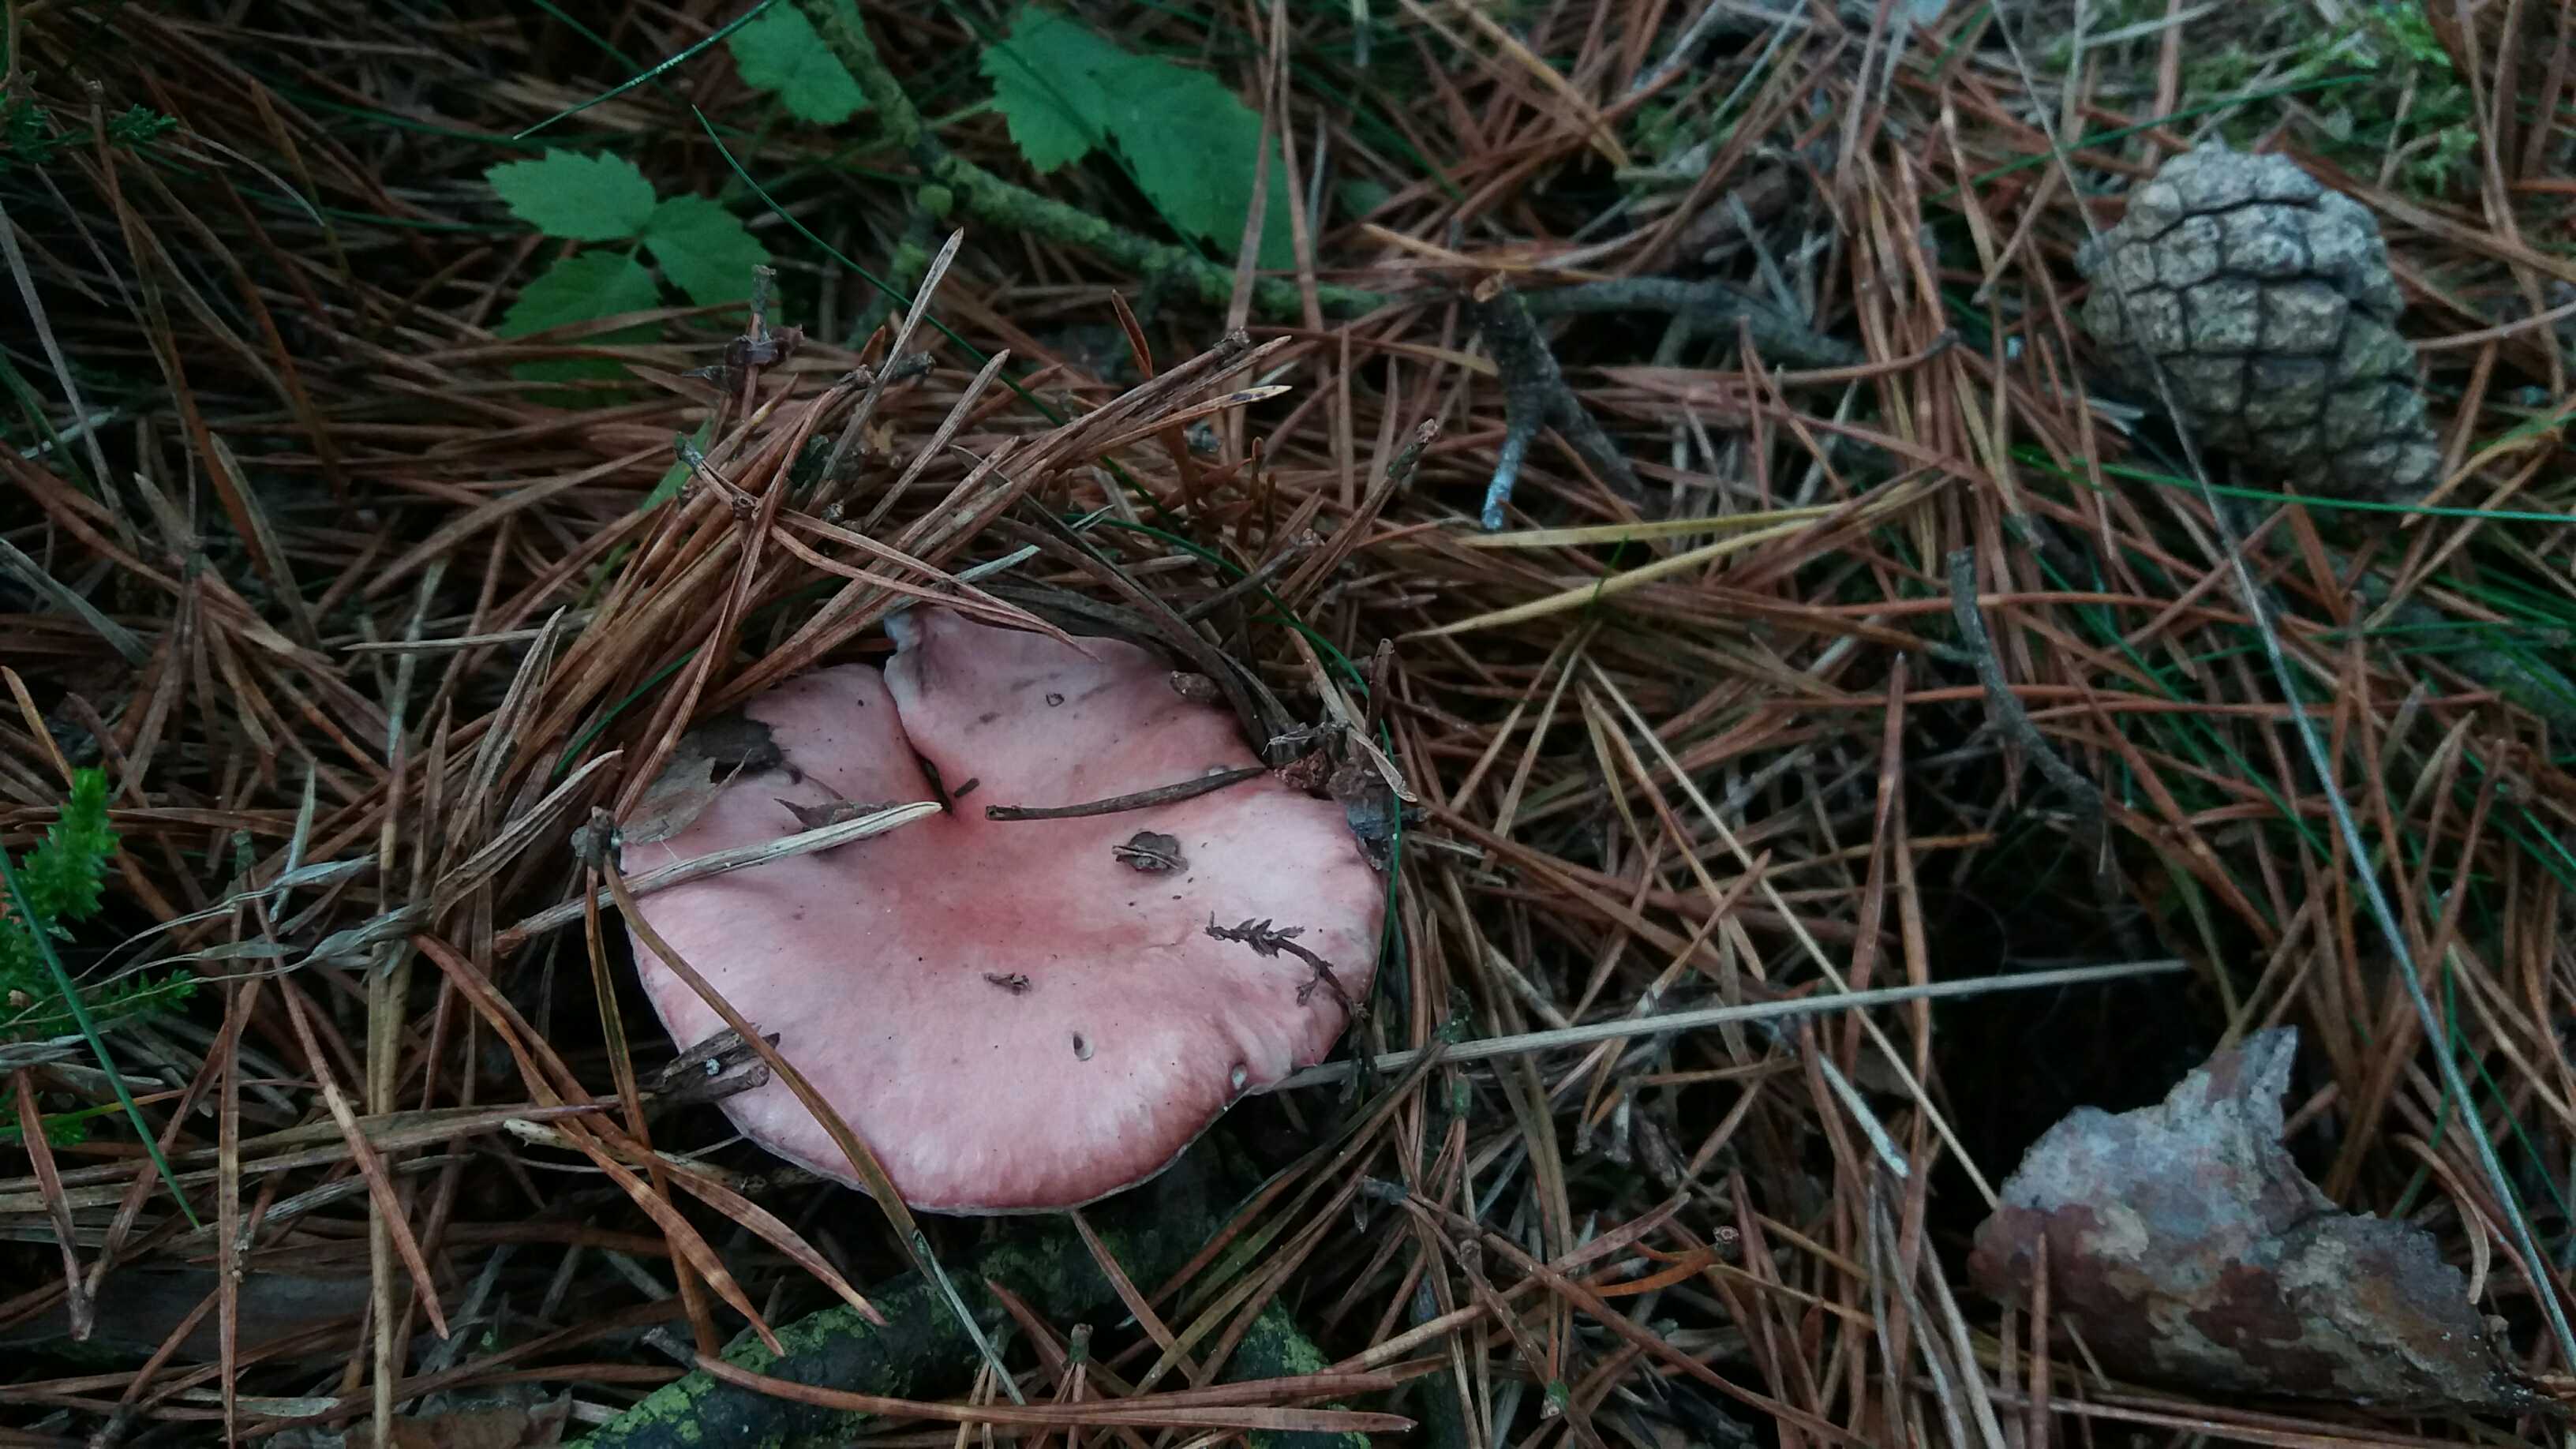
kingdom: Fungi
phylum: Basidiomycota
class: Agaricomycetes
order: Boletales
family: Gomphidiaceae
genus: Gomphidius
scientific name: Gomphidius roseus
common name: rosenrød slimslør
